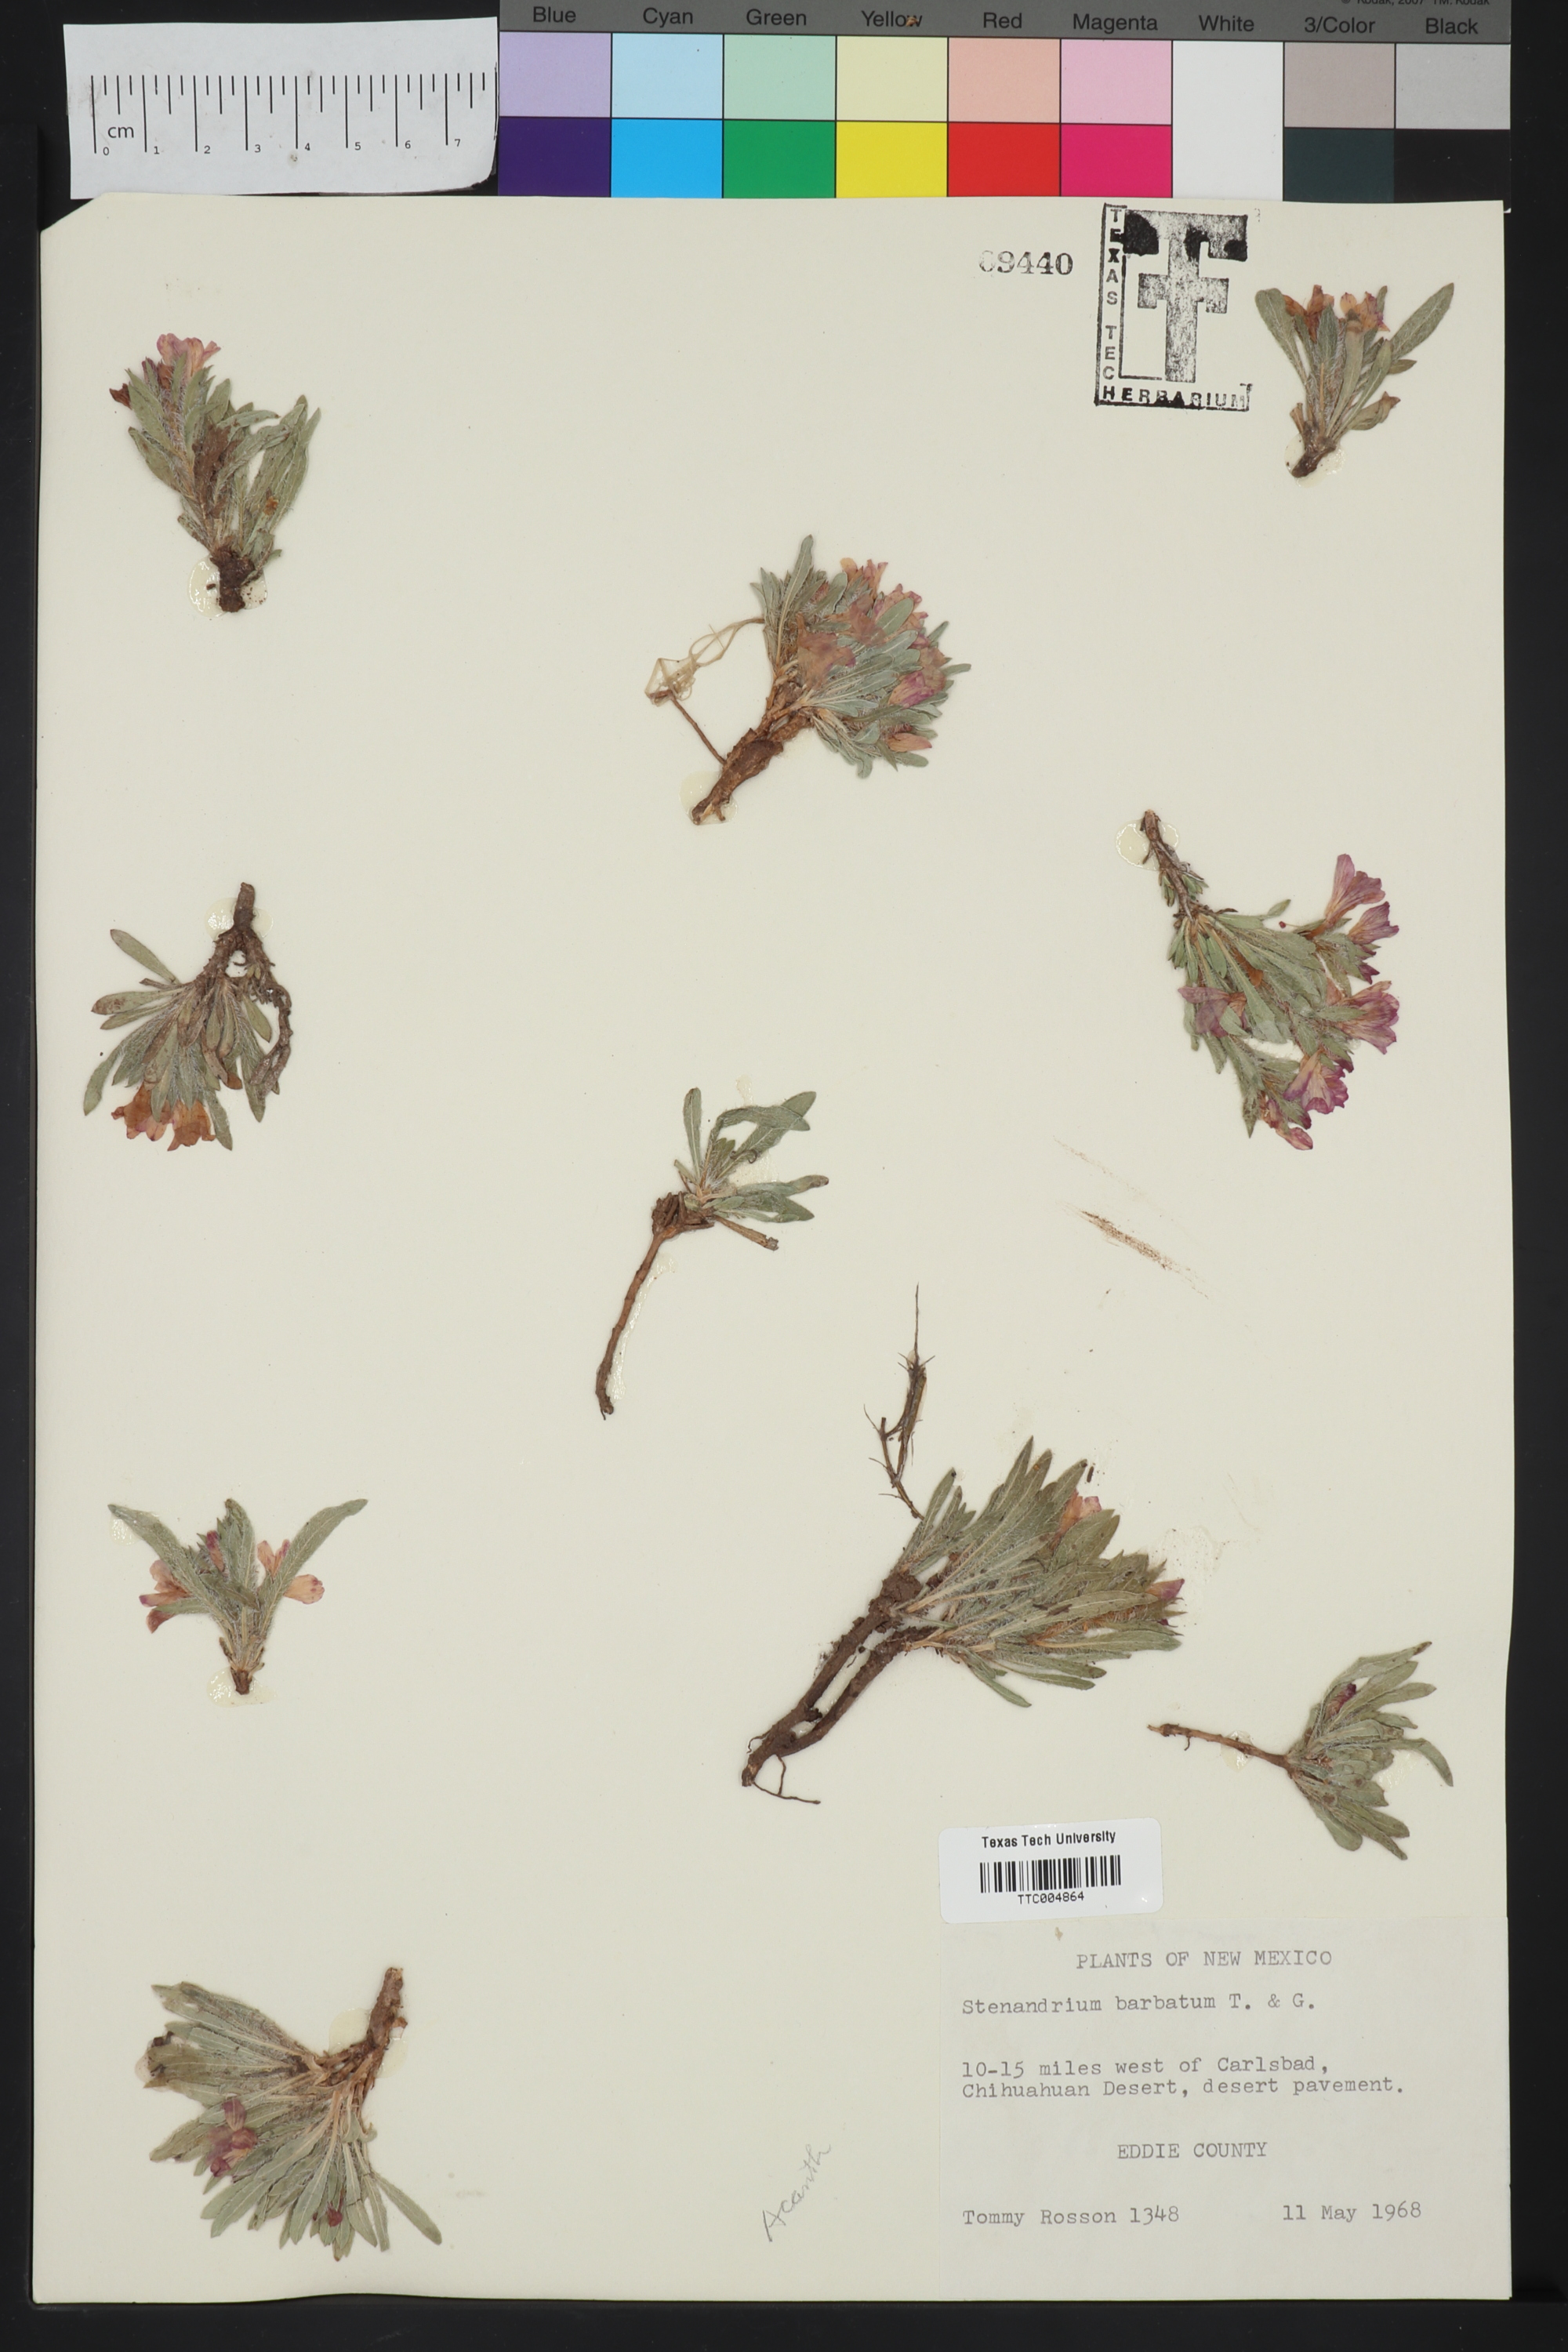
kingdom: Plantae
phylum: Tracheophyta
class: Magnoliopsida
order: Lamiales
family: Acanthaceae
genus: Stenandrium
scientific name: Stenandrium barbatum
